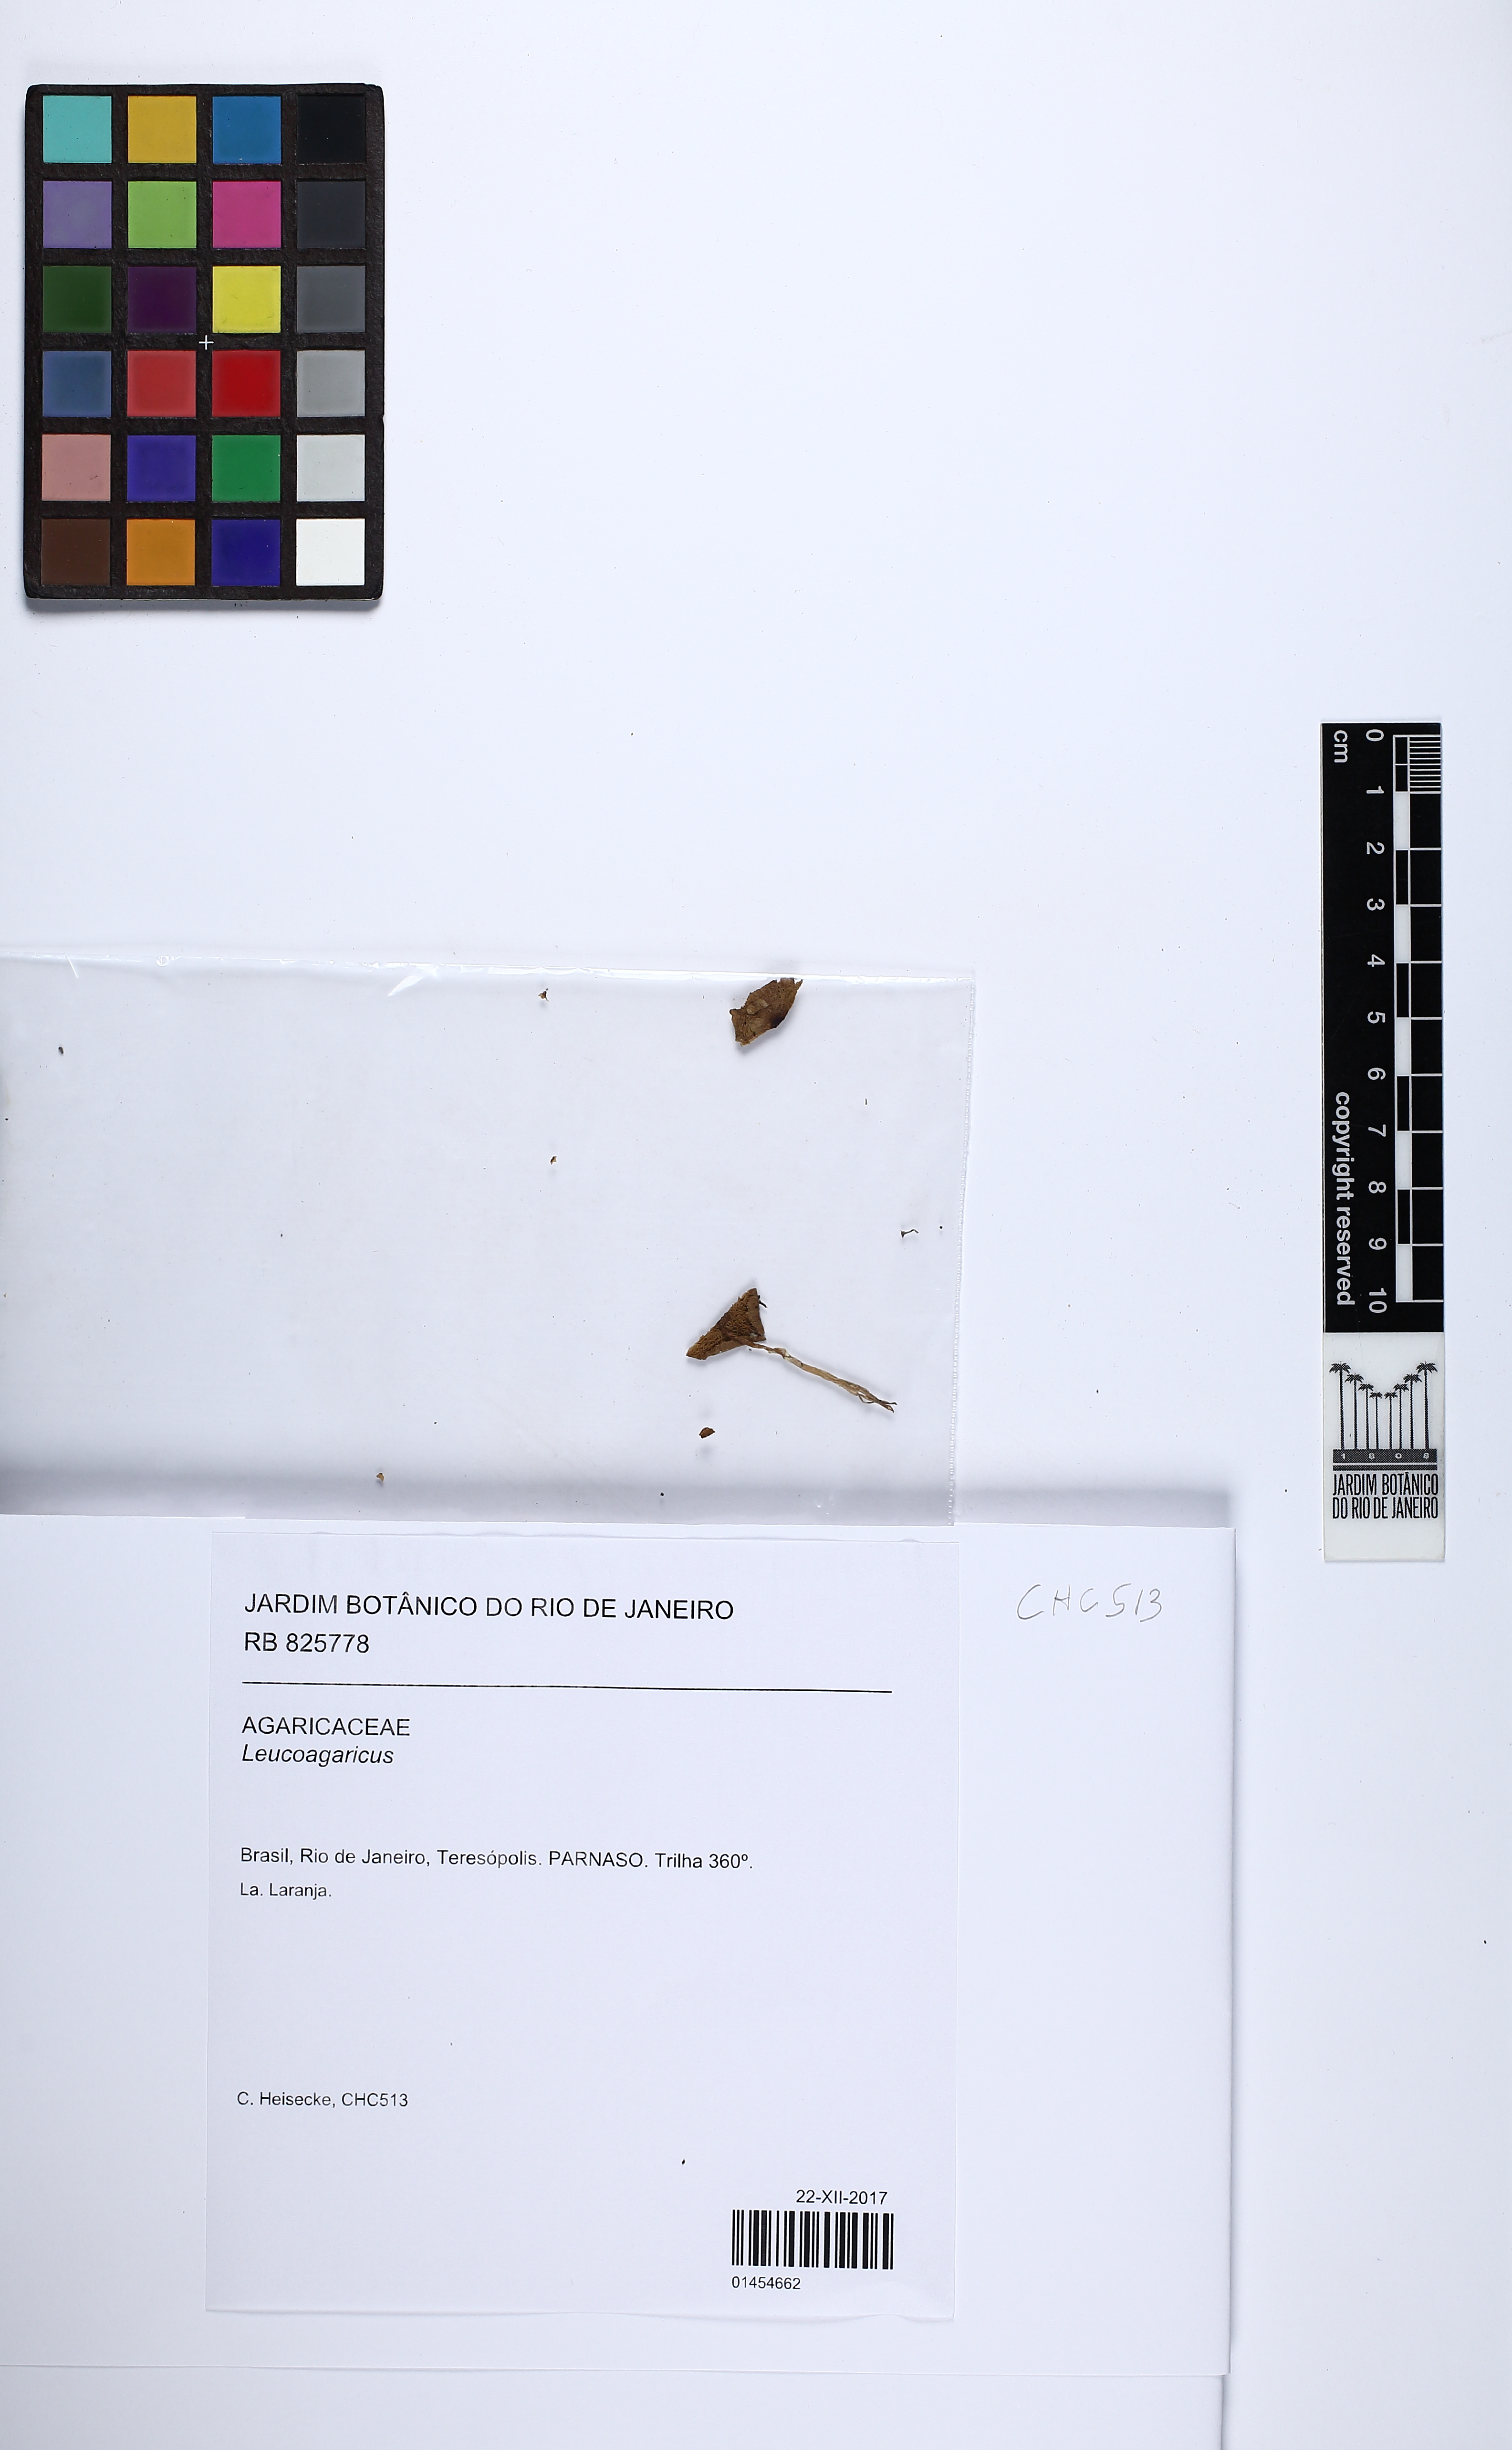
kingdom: Fungi
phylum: Basidiomycota
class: Agaricomycetes
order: Agaricales
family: Agaricaceae
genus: Leucoagaricus
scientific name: Leucoagaricus
